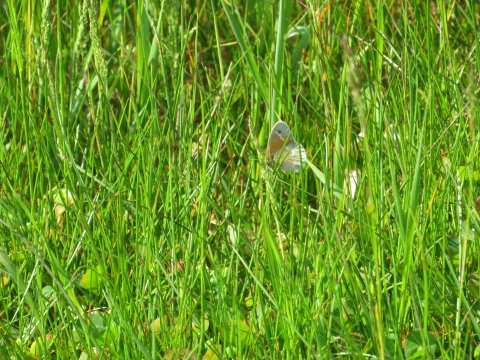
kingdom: Animalia
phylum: Arthropoda
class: Insecta
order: Lepidoptera
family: Nymphalidae
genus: Coenonympha
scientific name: Coenonympha tullia
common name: Large Heath
